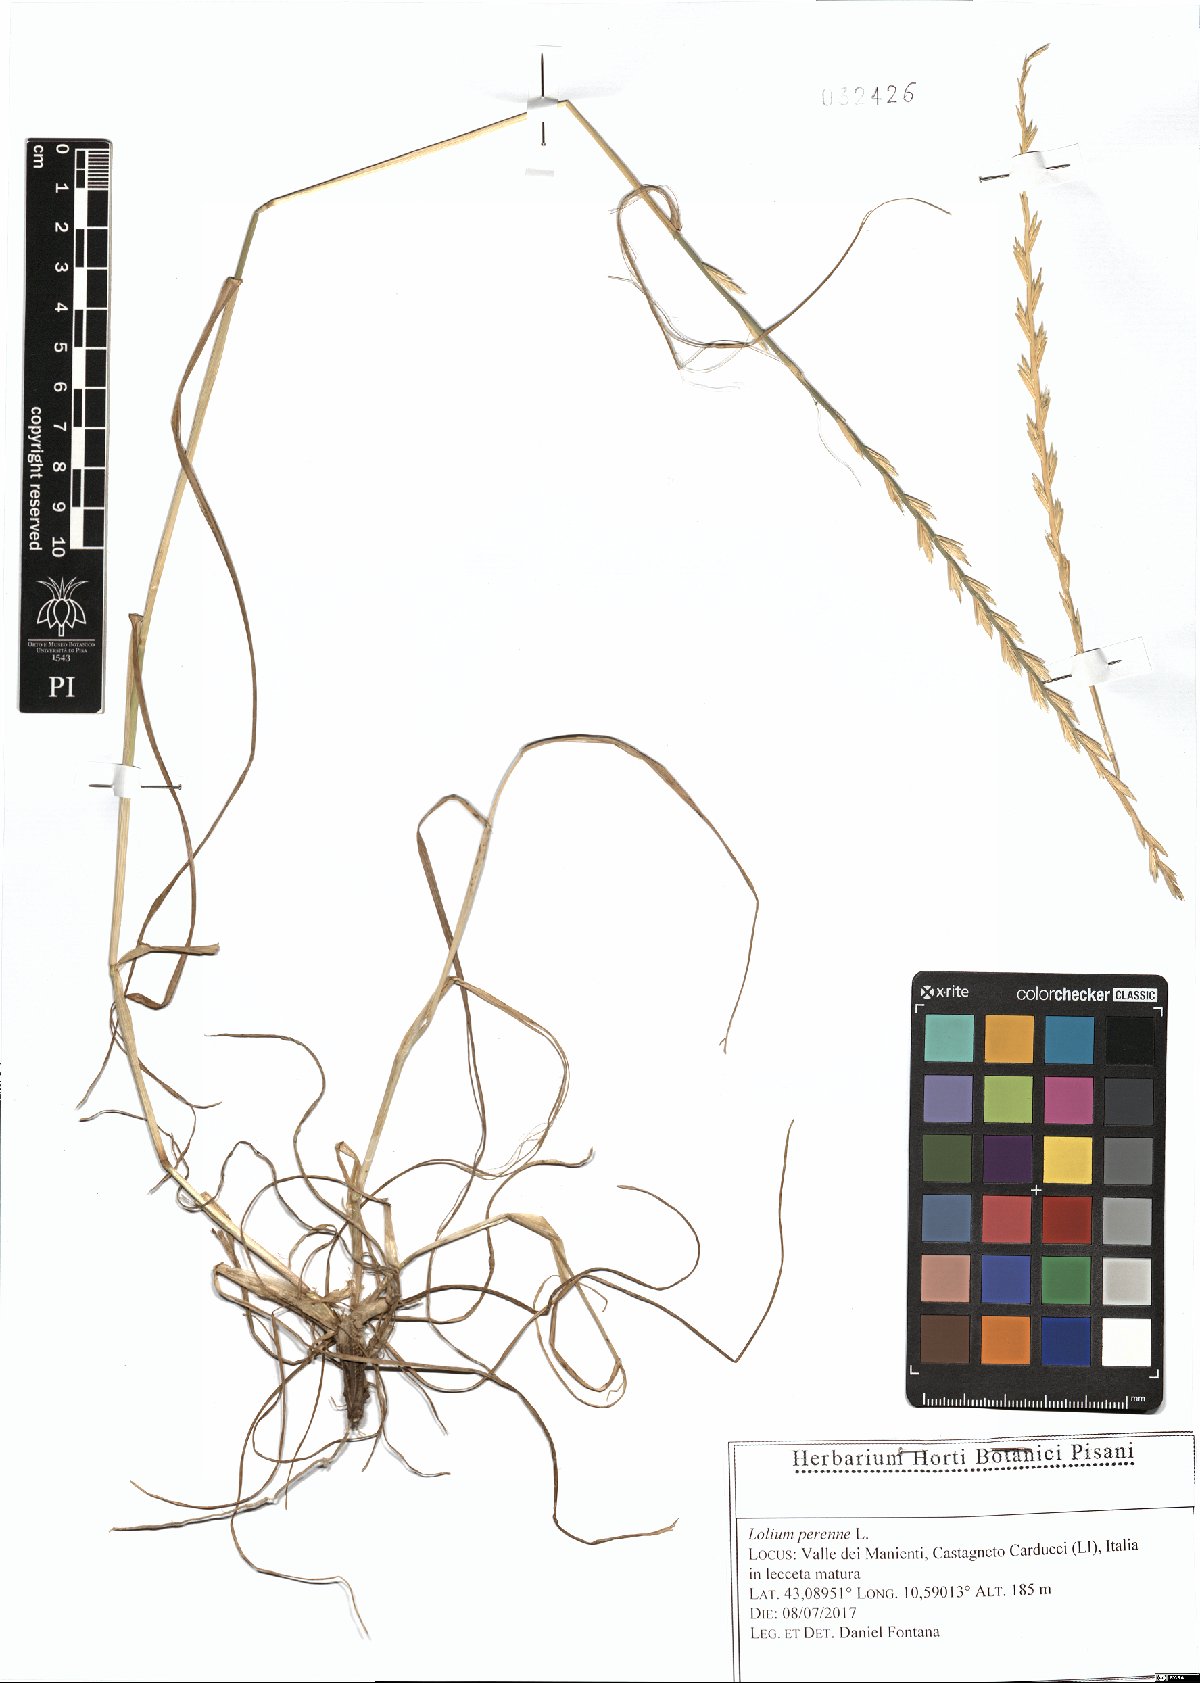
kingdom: Plantae
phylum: Tracheophyta
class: Liliopsida
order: Poales
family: Poaceae
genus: Lolium
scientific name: Lolium perenne
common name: Perennial ryegrass
